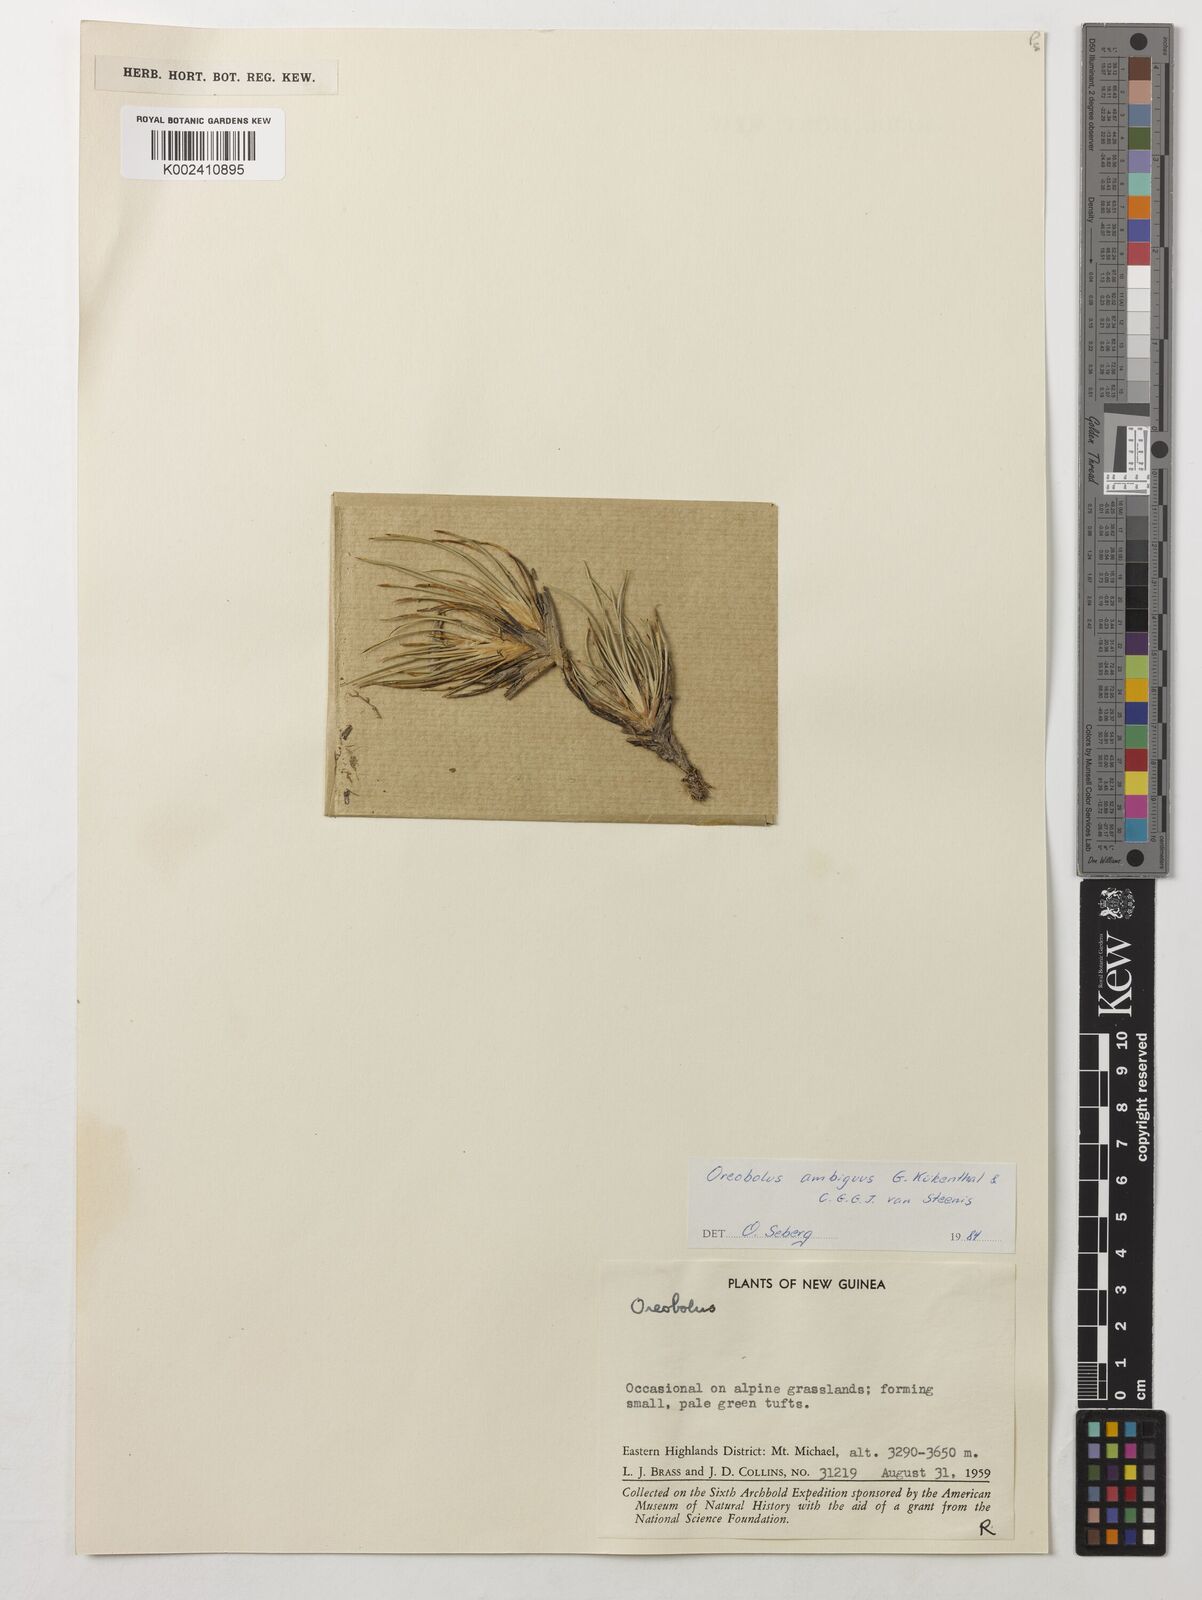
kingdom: Plantae
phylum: Tracheophyta
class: Liliopsida
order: Poales
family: Cyperaceae
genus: Oreobolus
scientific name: Oreobolus ambiguus
